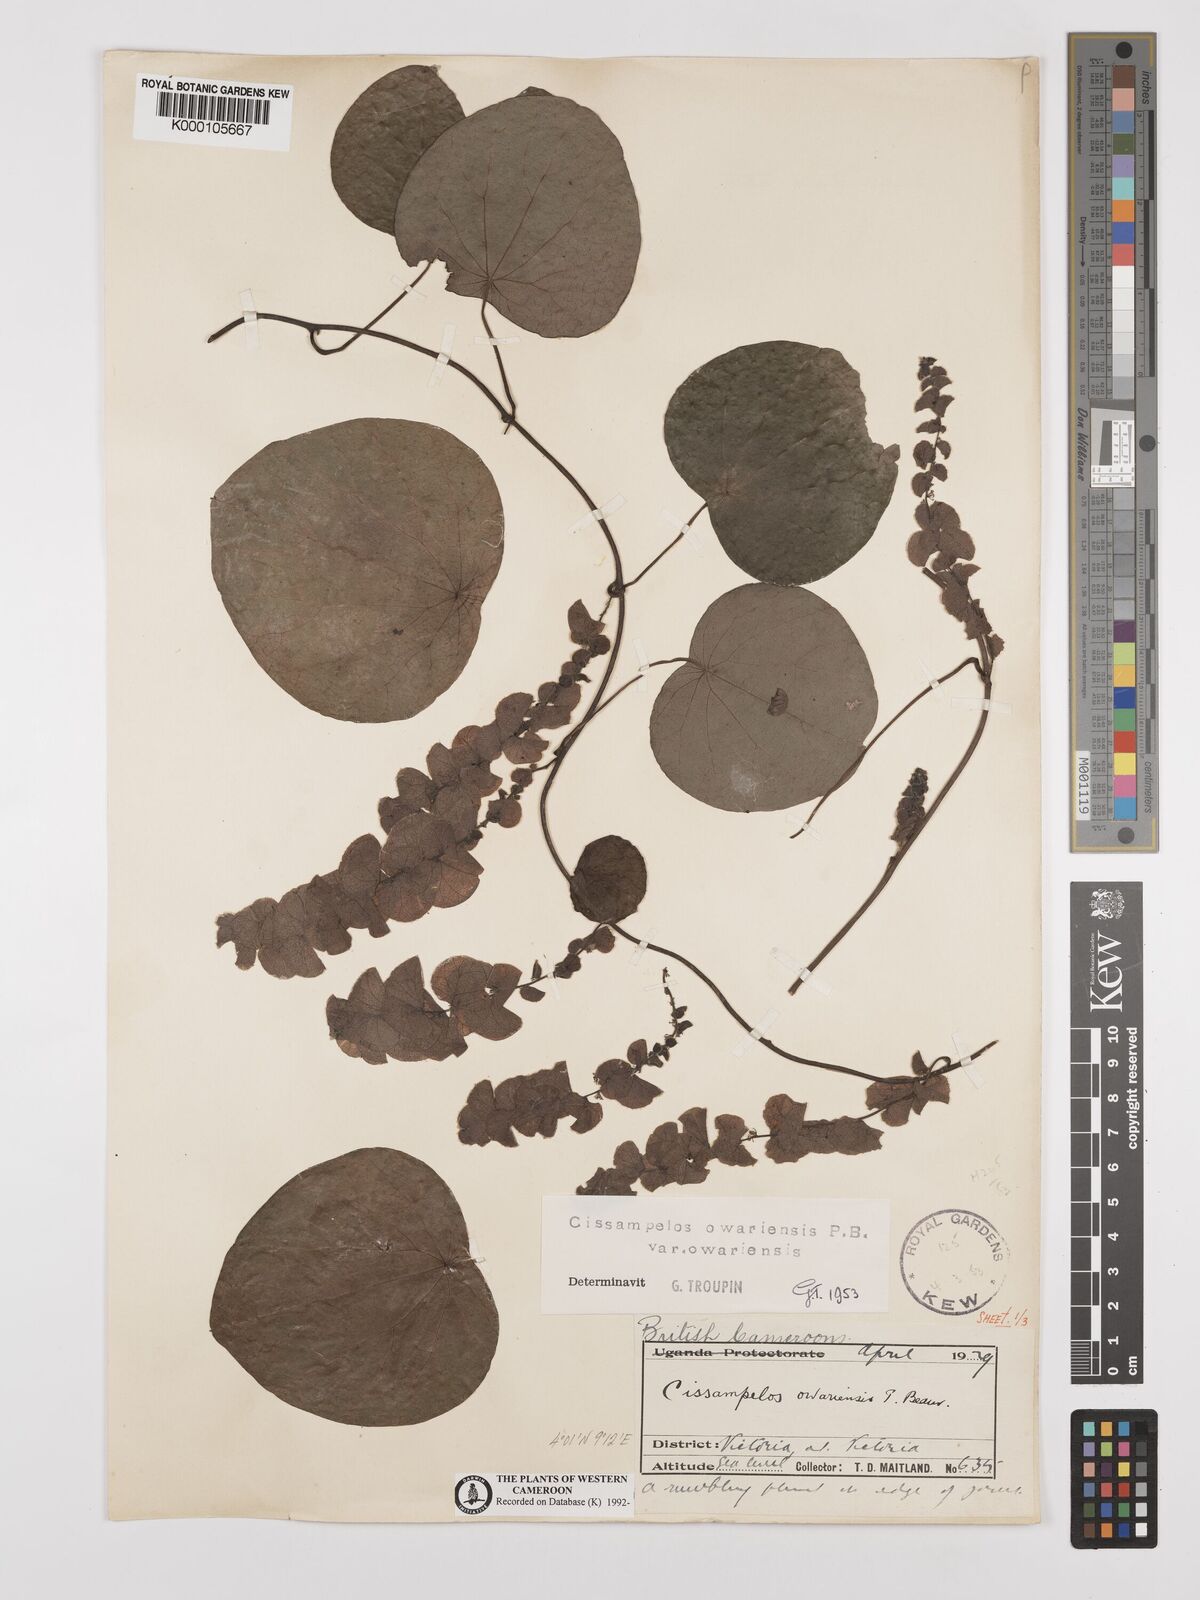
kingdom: Plantae
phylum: Tracheophyta
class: Magnoliopsida
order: Ranunculales
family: Menispermaceae
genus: Cissampelos
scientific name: Cissampelos owariensis
